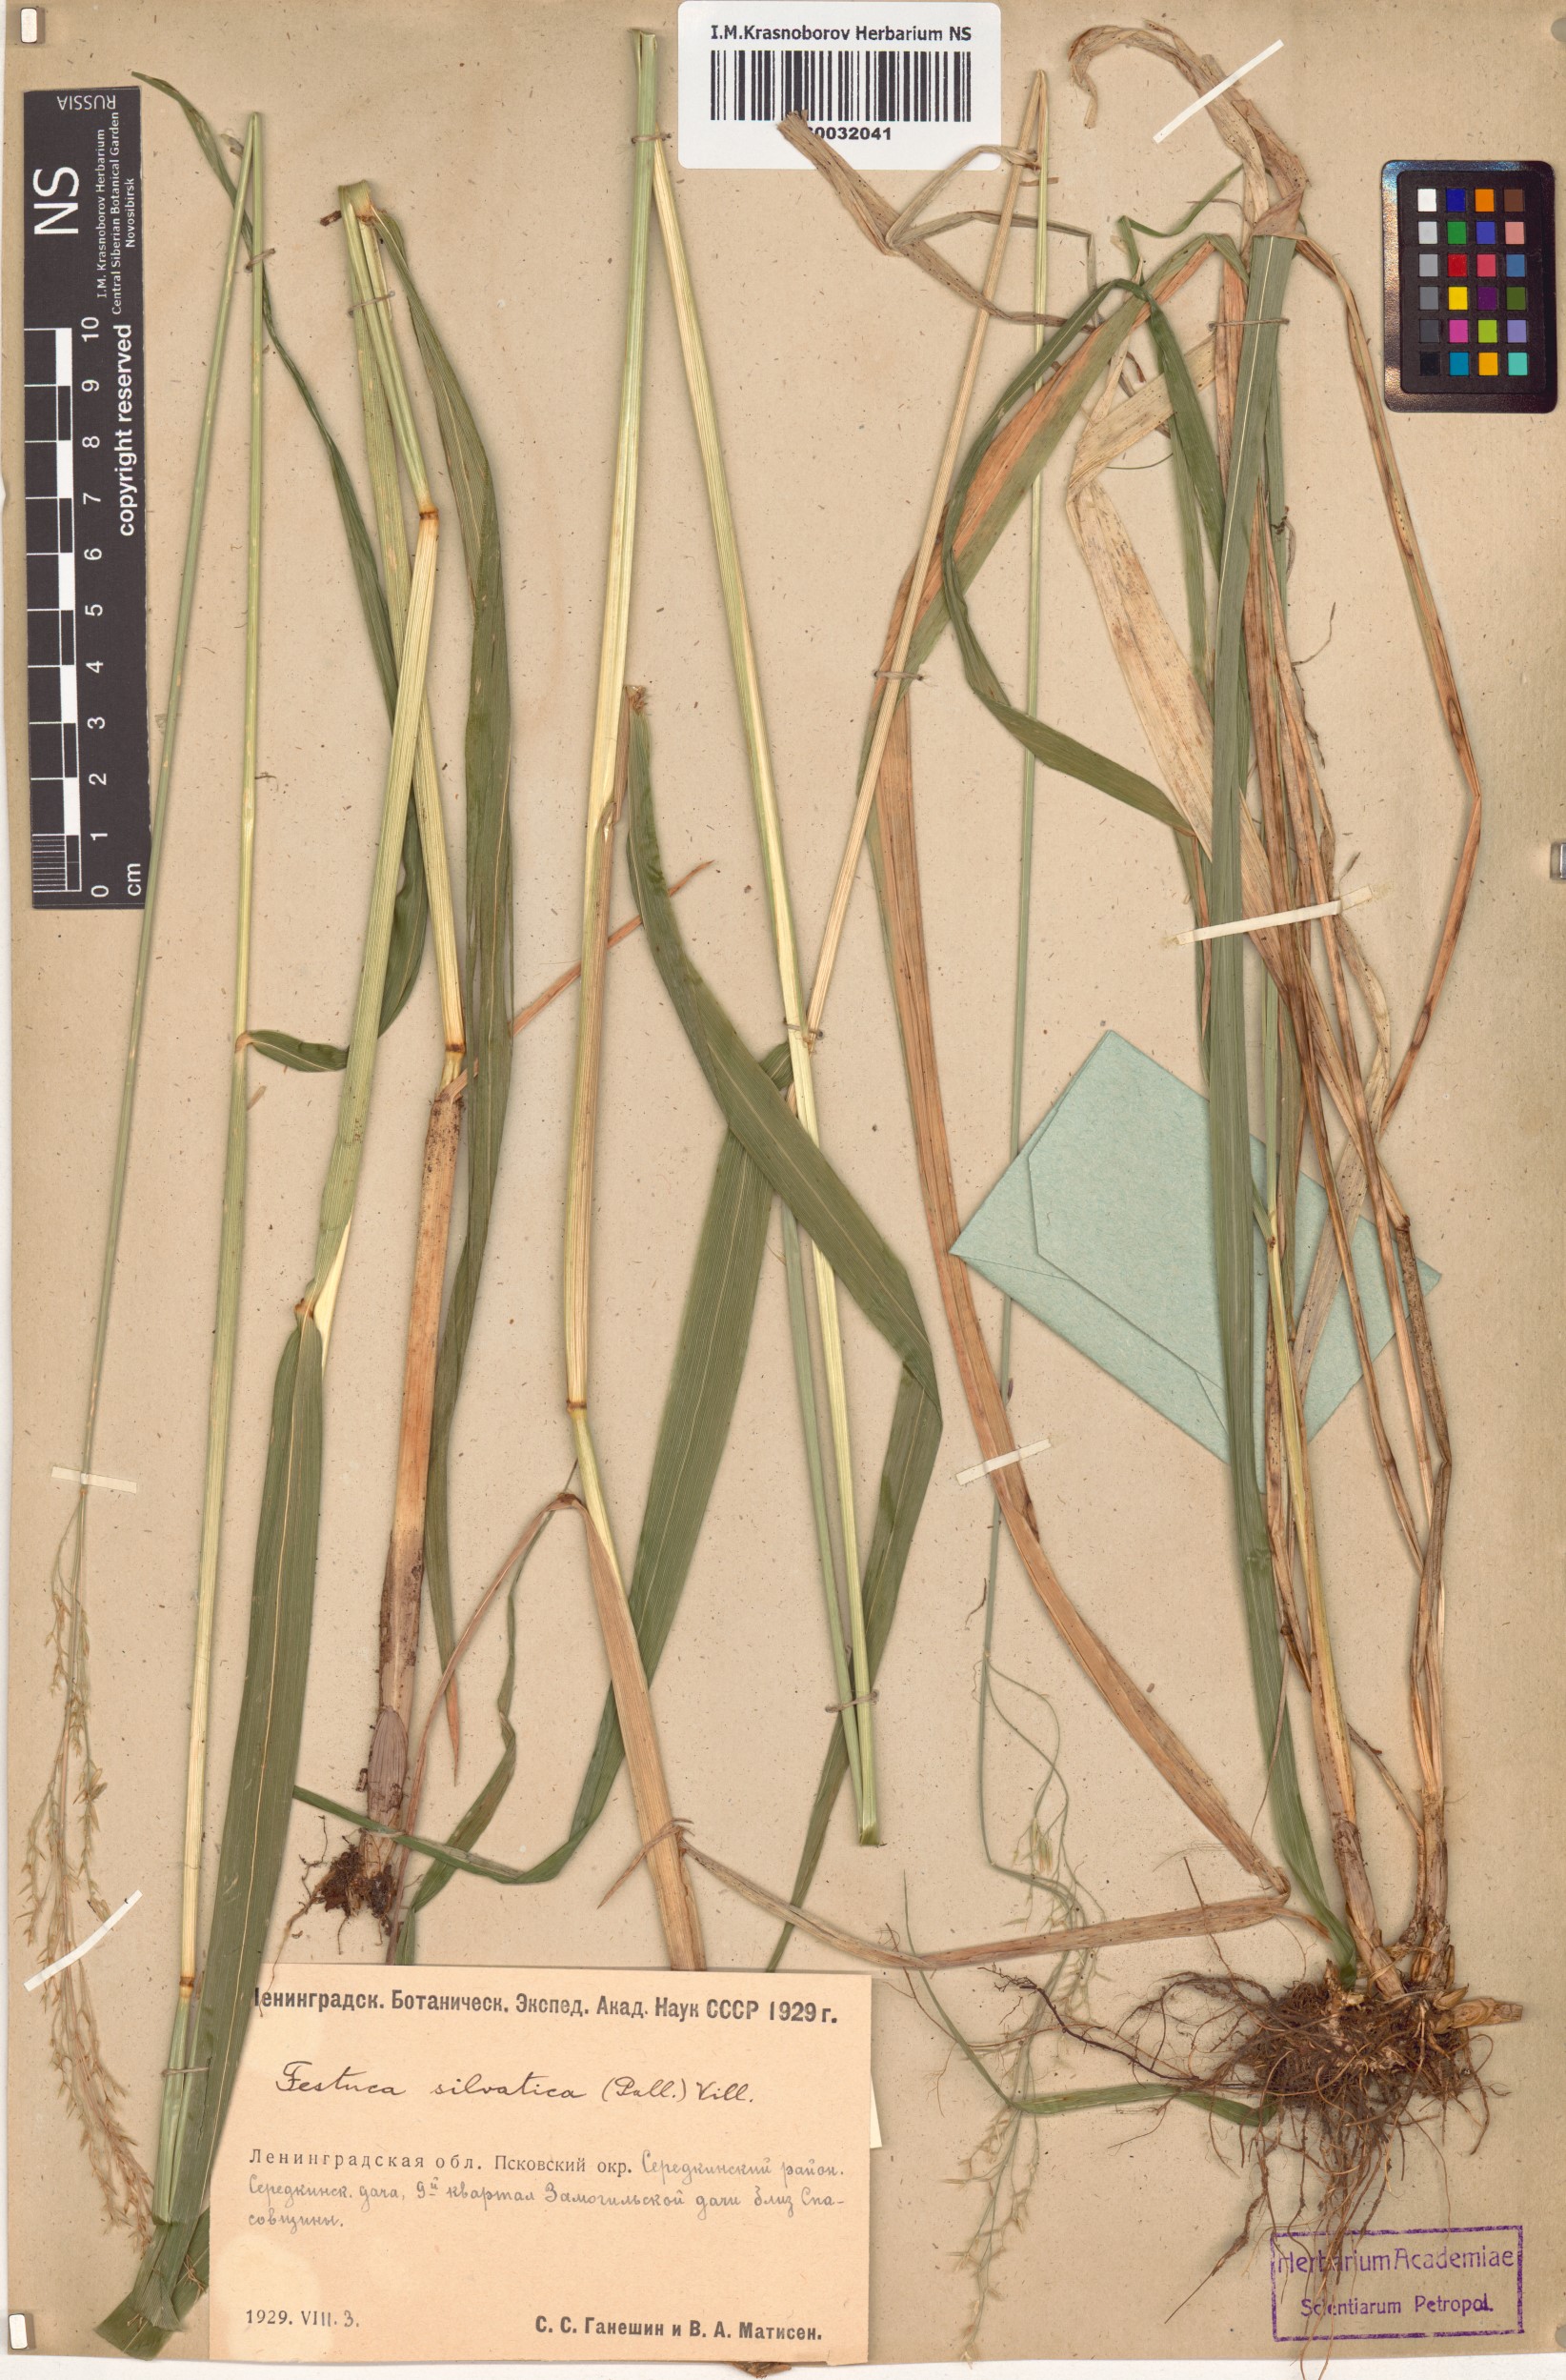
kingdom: Plantae
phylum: Tracheophyta
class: Liliopsida
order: Poales
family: Poaceae
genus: Festuca
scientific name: Festuca altissima
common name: Wood fescue
